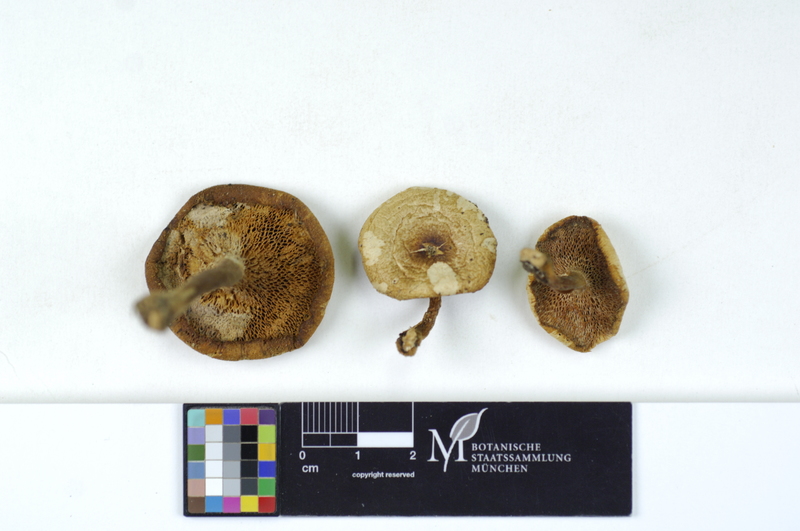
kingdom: Plantae
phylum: Tracheophyta
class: Magnoliopsida
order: Fagales
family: Fagaceae
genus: Fagus
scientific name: Fagus sylvatica
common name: Beech
